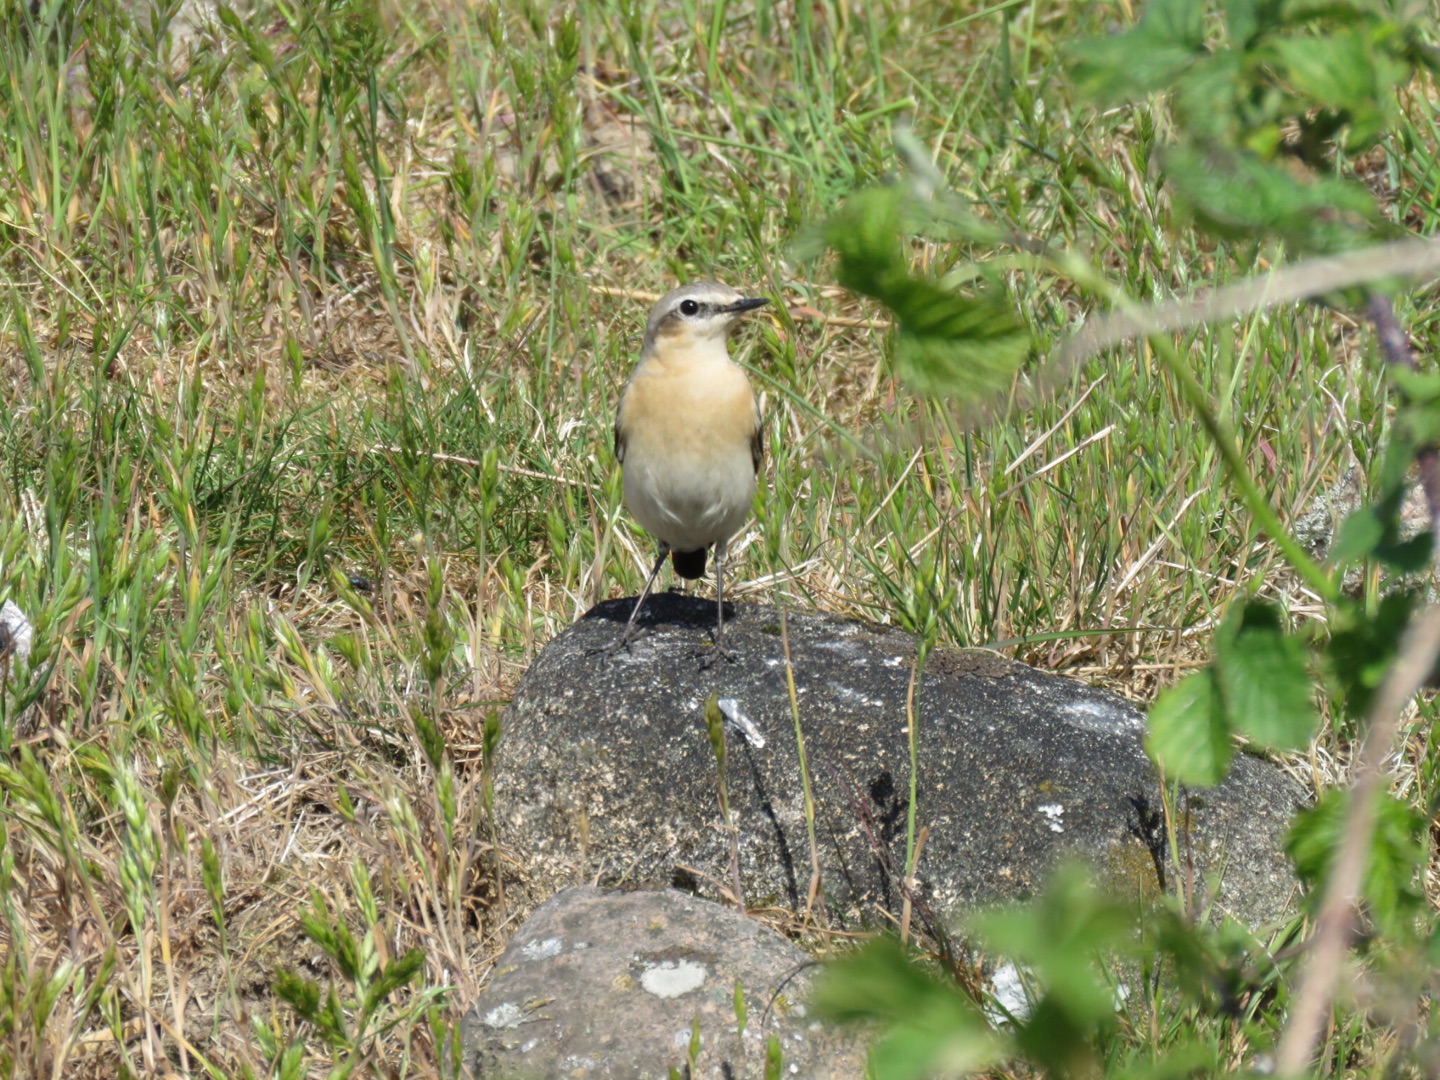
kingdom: Animalia
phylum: Chordata
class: Aves
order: Passeriformes
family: Muscicapidae
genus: Oenanthe
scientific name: Oenanthe oenanthe
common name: Stenpikker
